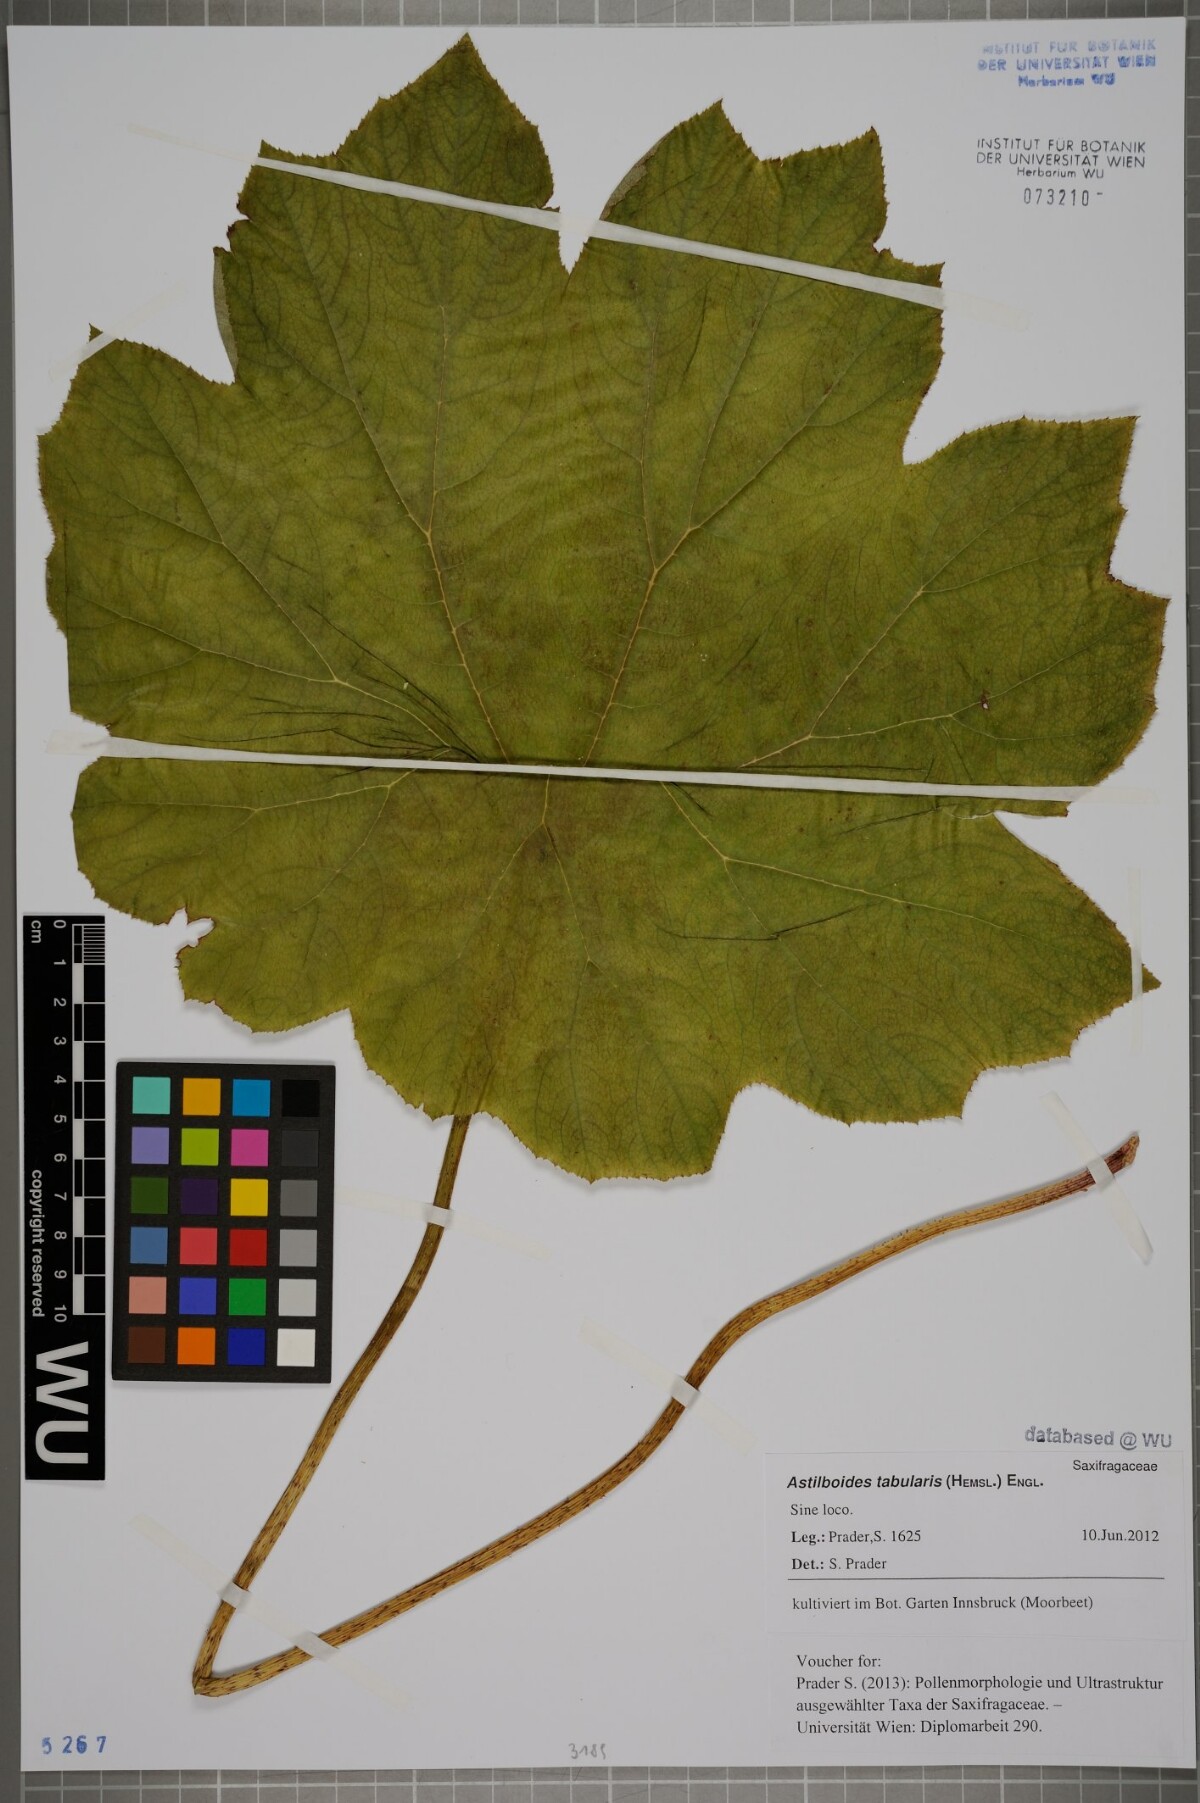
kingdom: Plantae
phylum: Tracheophyta
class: Magnoliopsida
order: Saxifragales
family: Saxifragaceae
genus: Astilboides
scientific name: Astilboides tabularis
